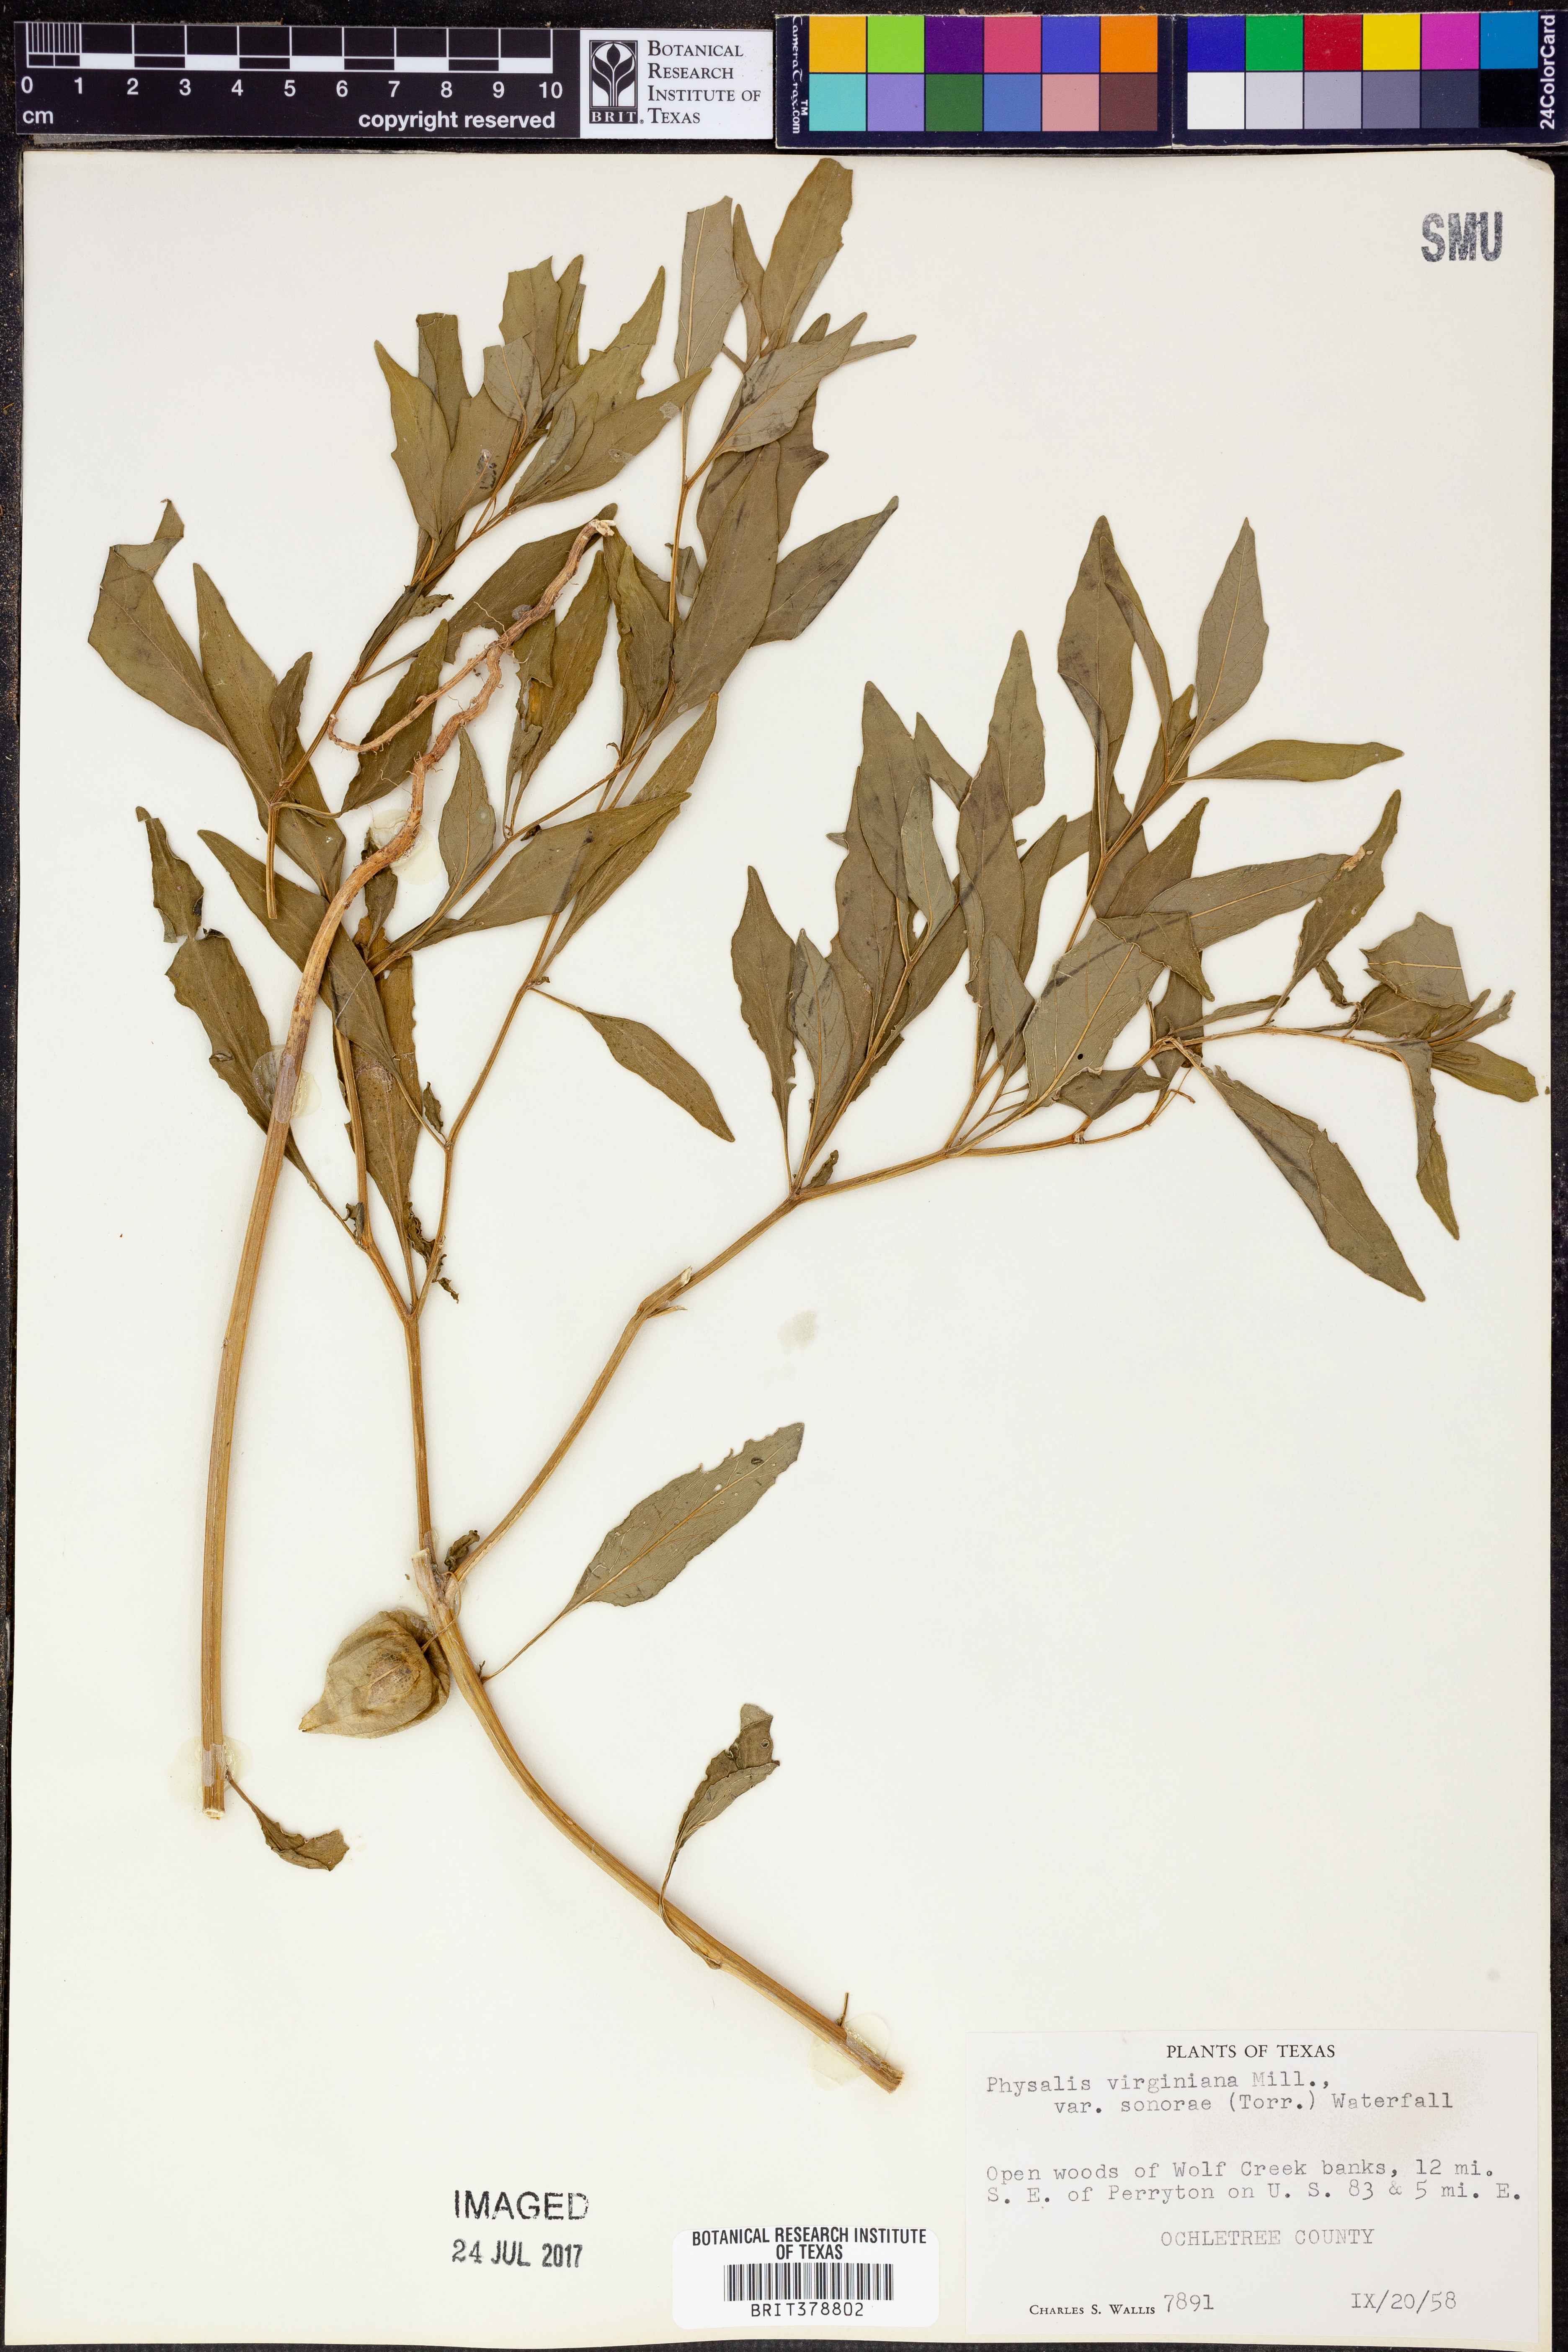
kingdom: Plantae
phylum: Tracheophyta
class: Magnoliopsida
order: Solanales
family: Solanaceae
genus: Physalis
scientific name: Physalis longifolia
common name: Common ground-cherry
